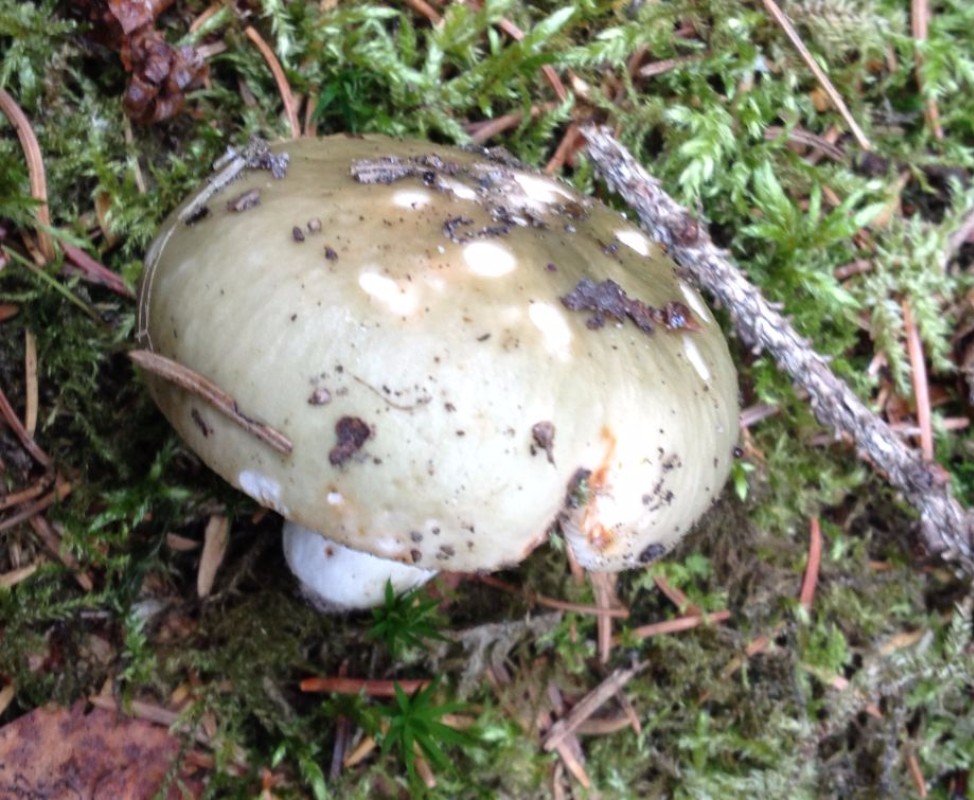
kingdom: Fungi
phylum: Basidiomycota
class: Agaricomycetes
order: Russulales
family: Russulaceae
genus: Russula
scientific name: Russula aeruginea
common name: græsgrøn skørhat
